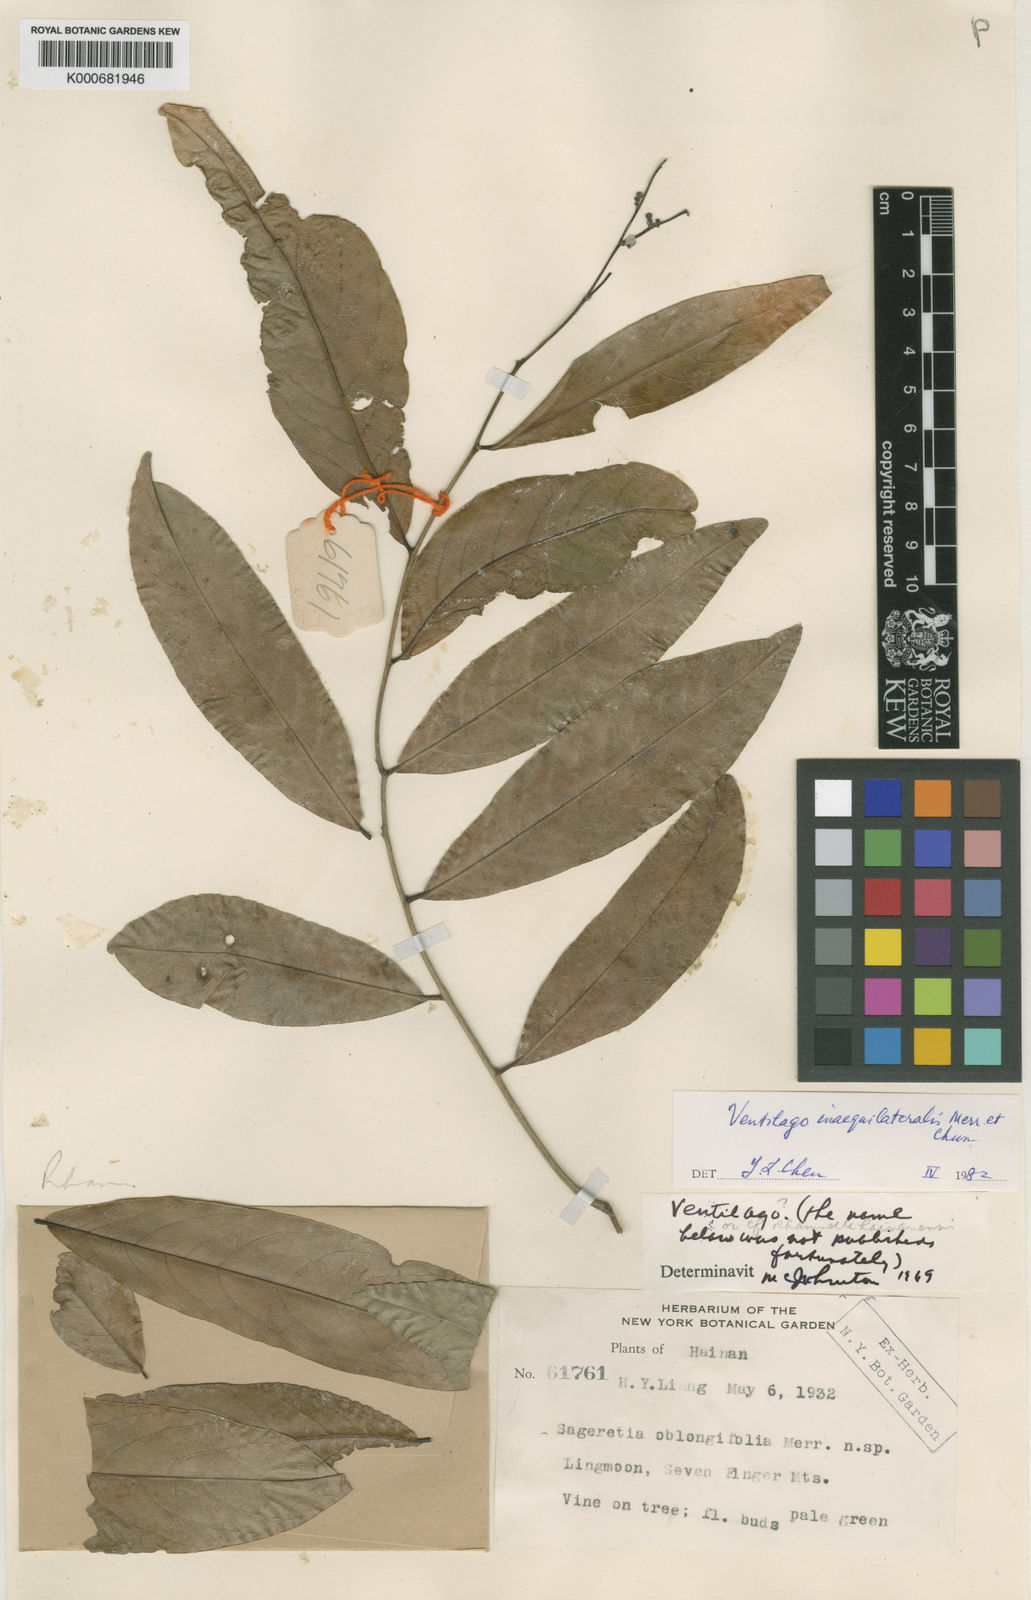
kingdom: Plantae
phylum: Tracheophyta
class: Magnoliopsida
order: Rosales
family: Rhamnaceae
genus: Smythea
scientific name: Smythea oblongifolia
